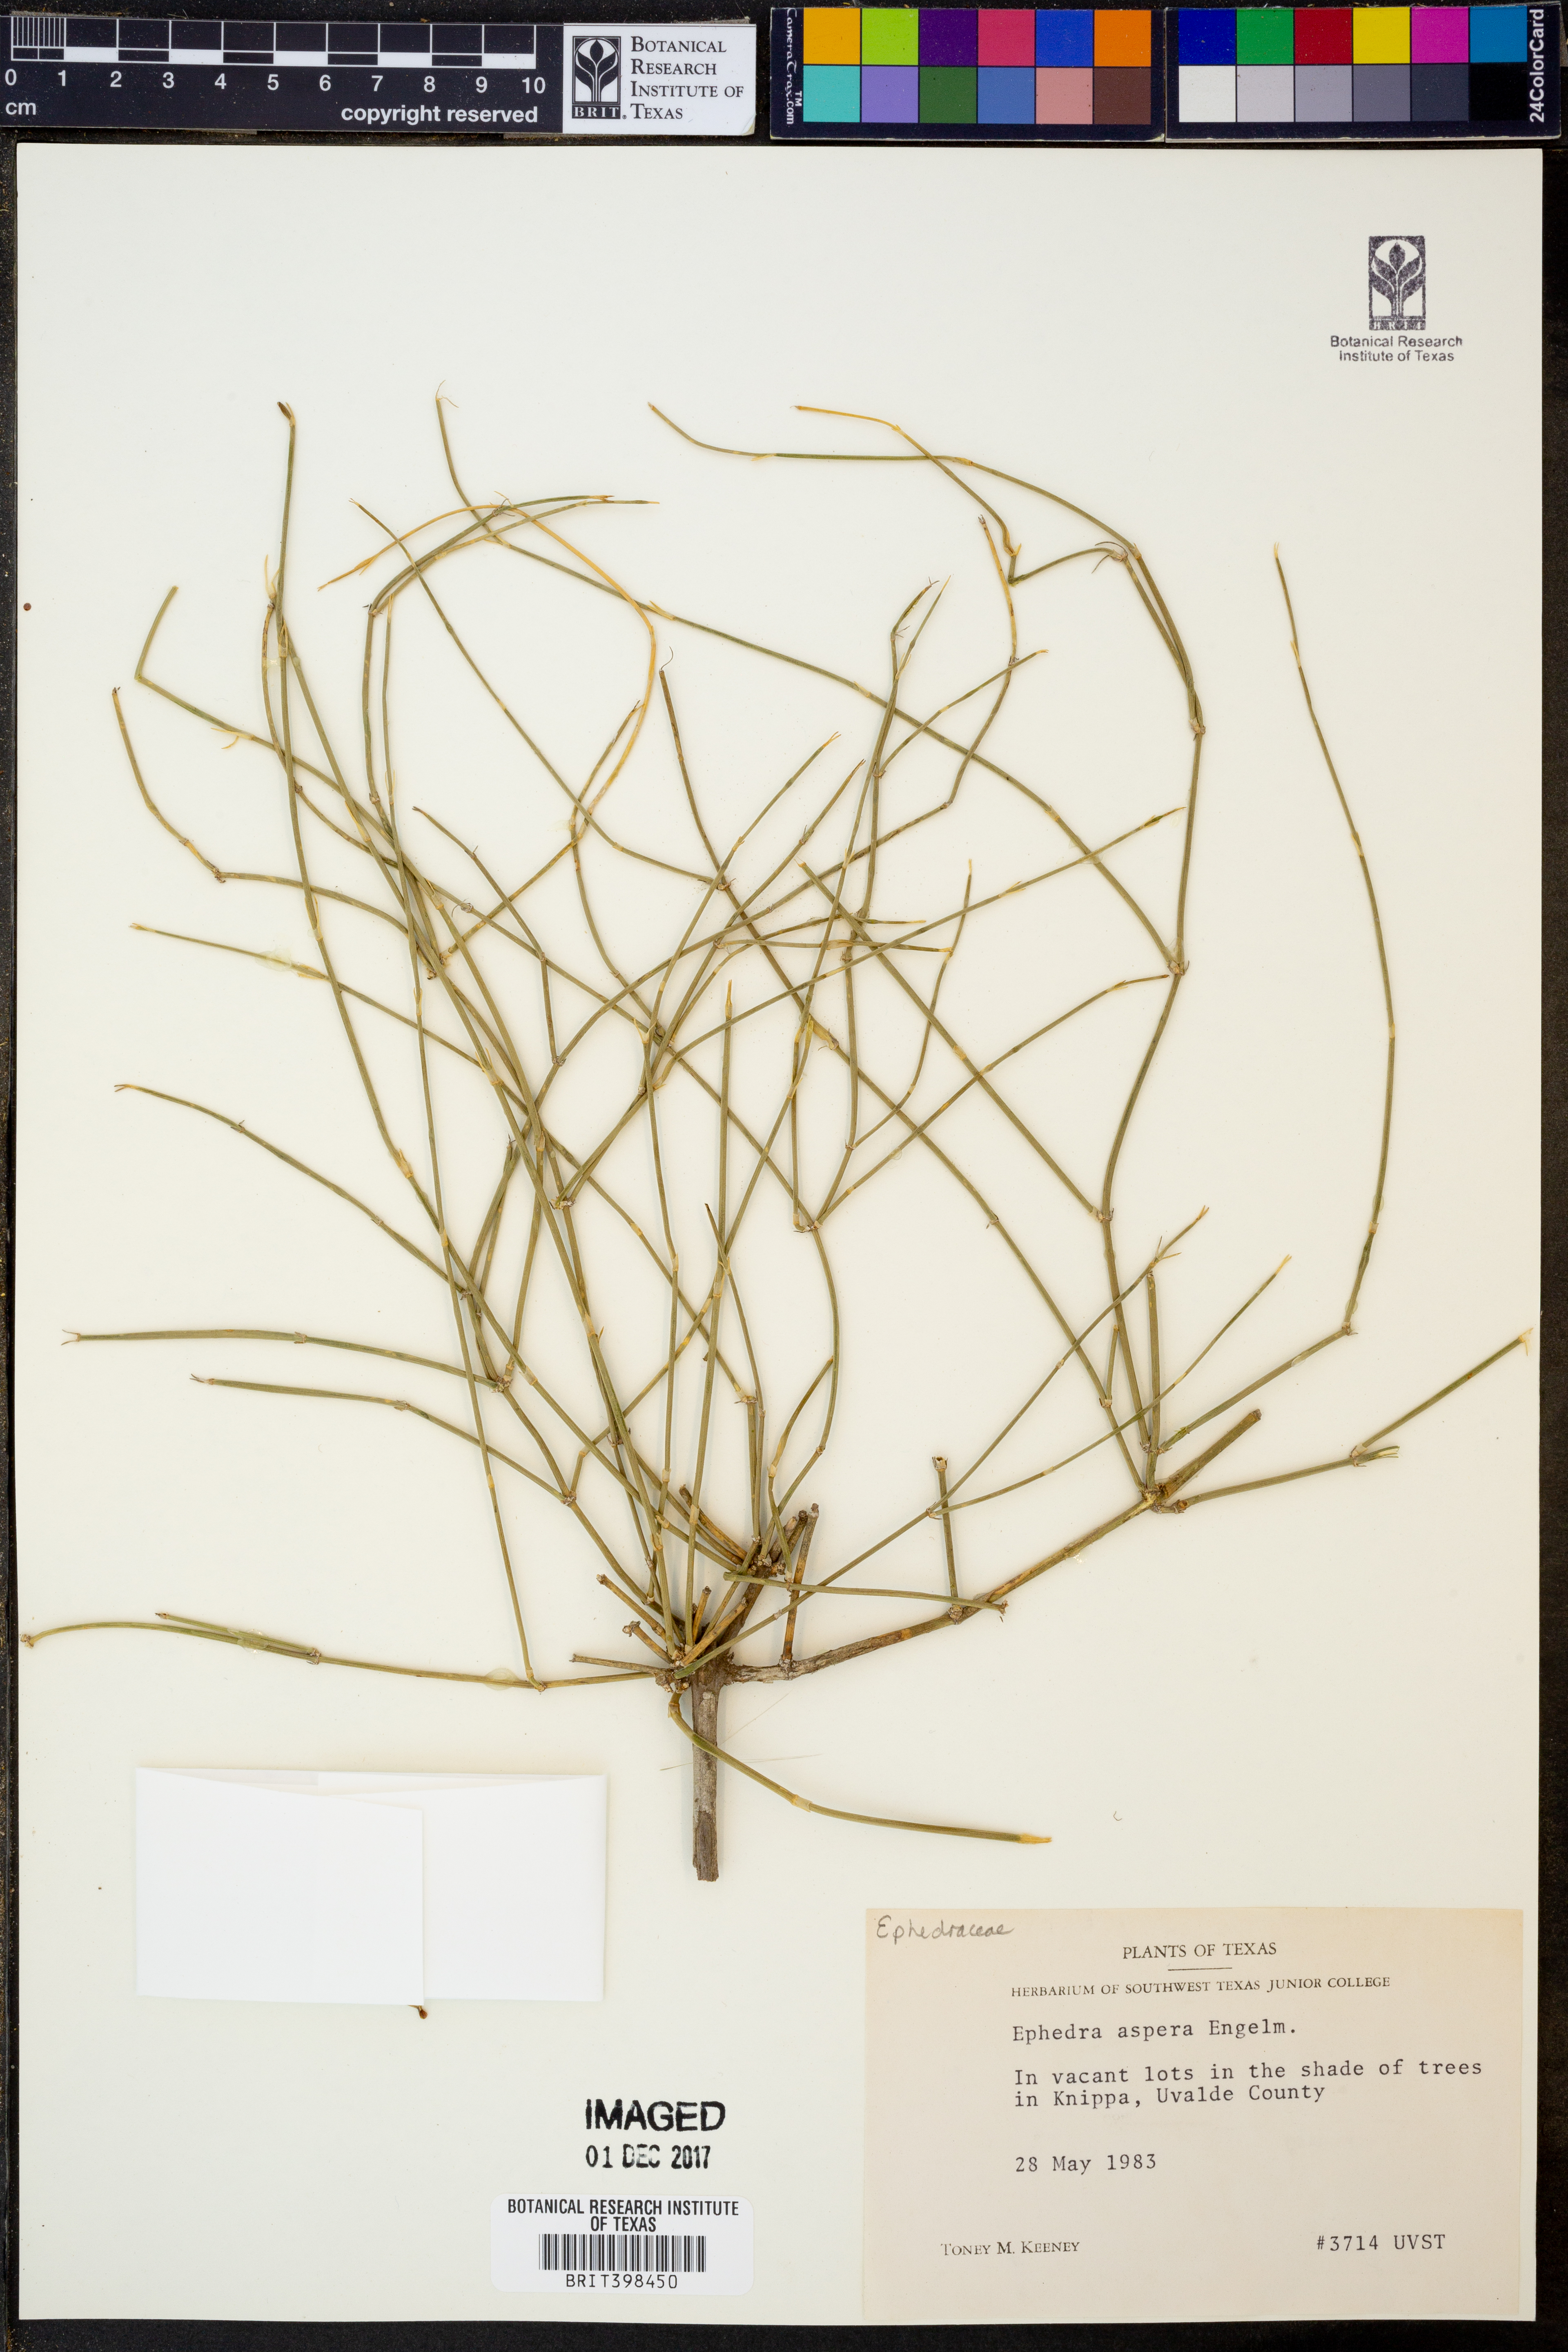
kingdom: Plantae
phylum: Tracheophyta
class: Gnetopsida
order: Ephedrales
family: Ephedraceae
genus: Ephedra
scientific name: Ephedra aspera
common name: Boundary ephedra
